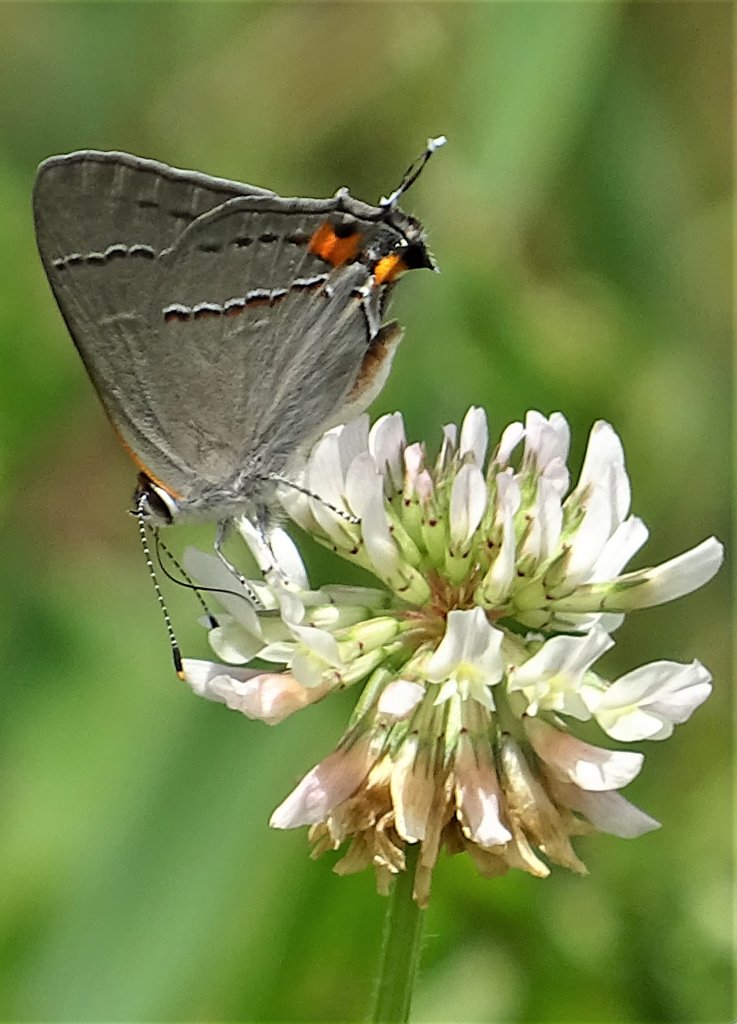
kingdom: Animalia
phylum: Arthropoda
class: Insecta
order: Lepidoptera
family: Lycaenidae
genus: Strymon
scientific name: Strymon melinus
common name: Gray Hairstreak
